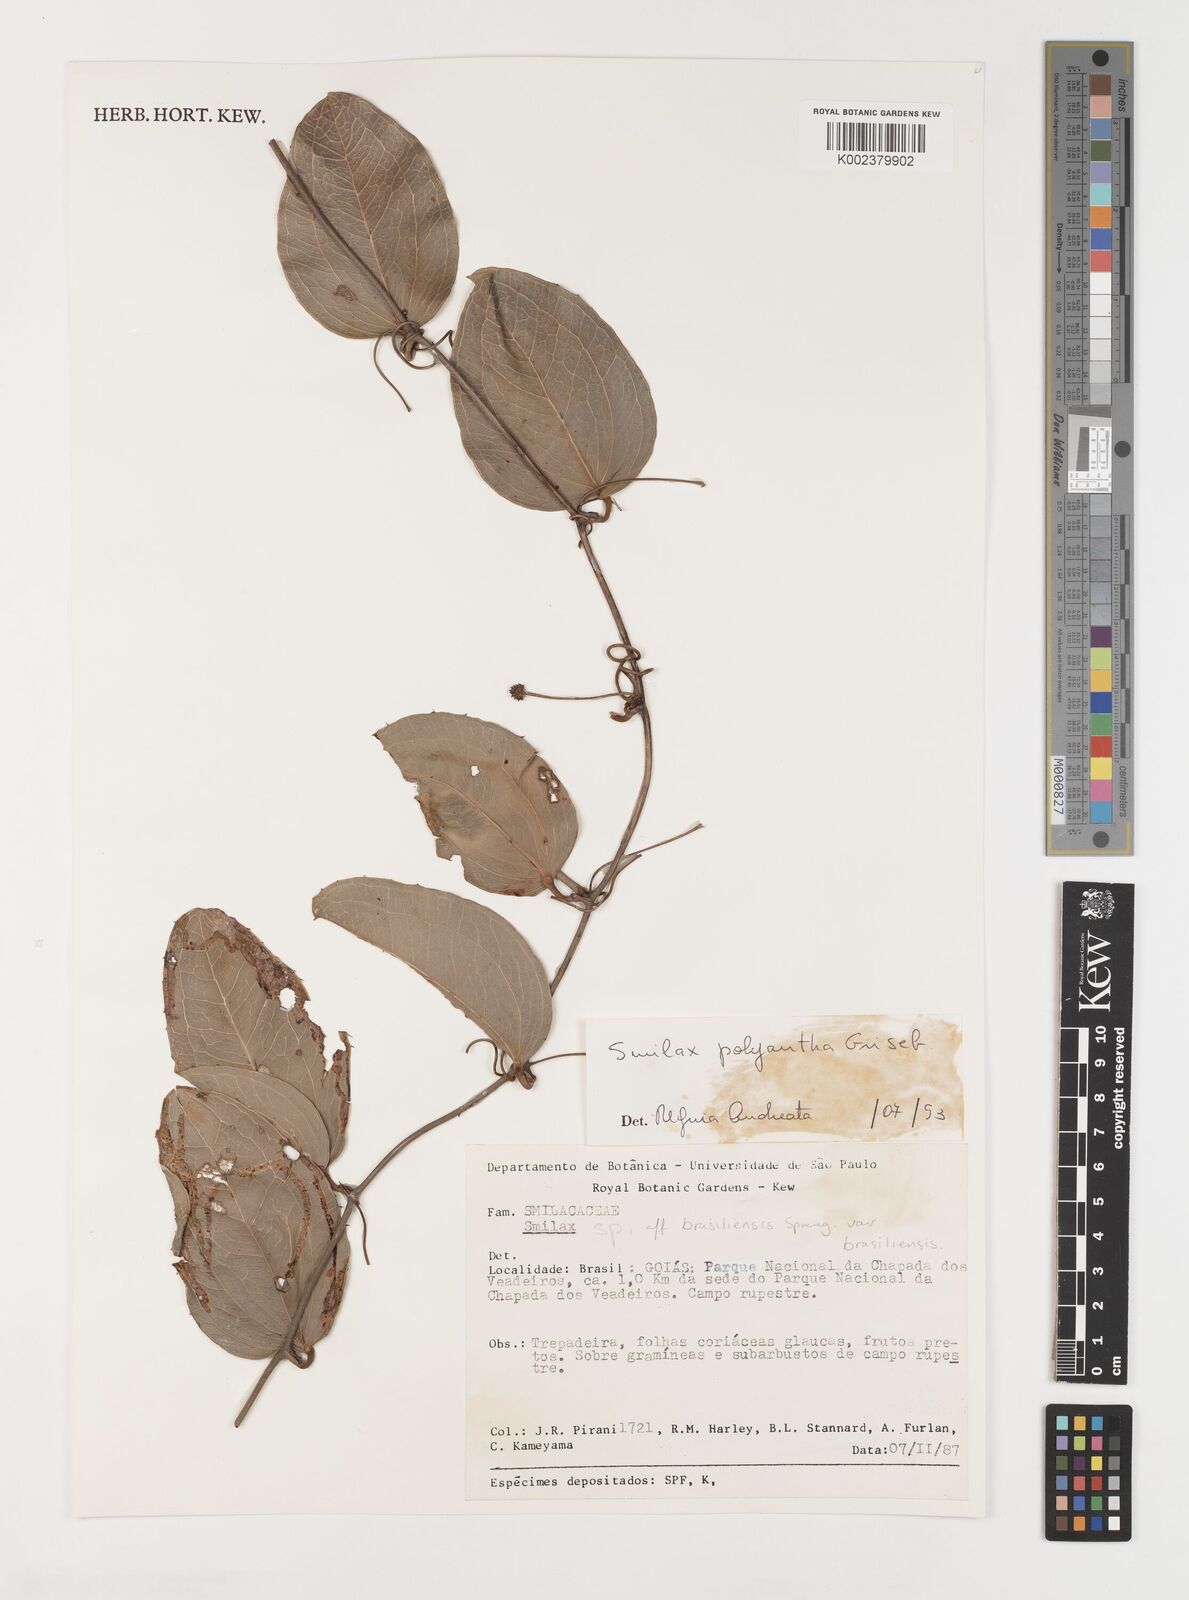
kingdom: Plantae
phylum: Tracheophyta
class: Liliopsida
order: Liliales
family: Smilacaceae
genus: Smilax
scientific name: Smilax polyantha
